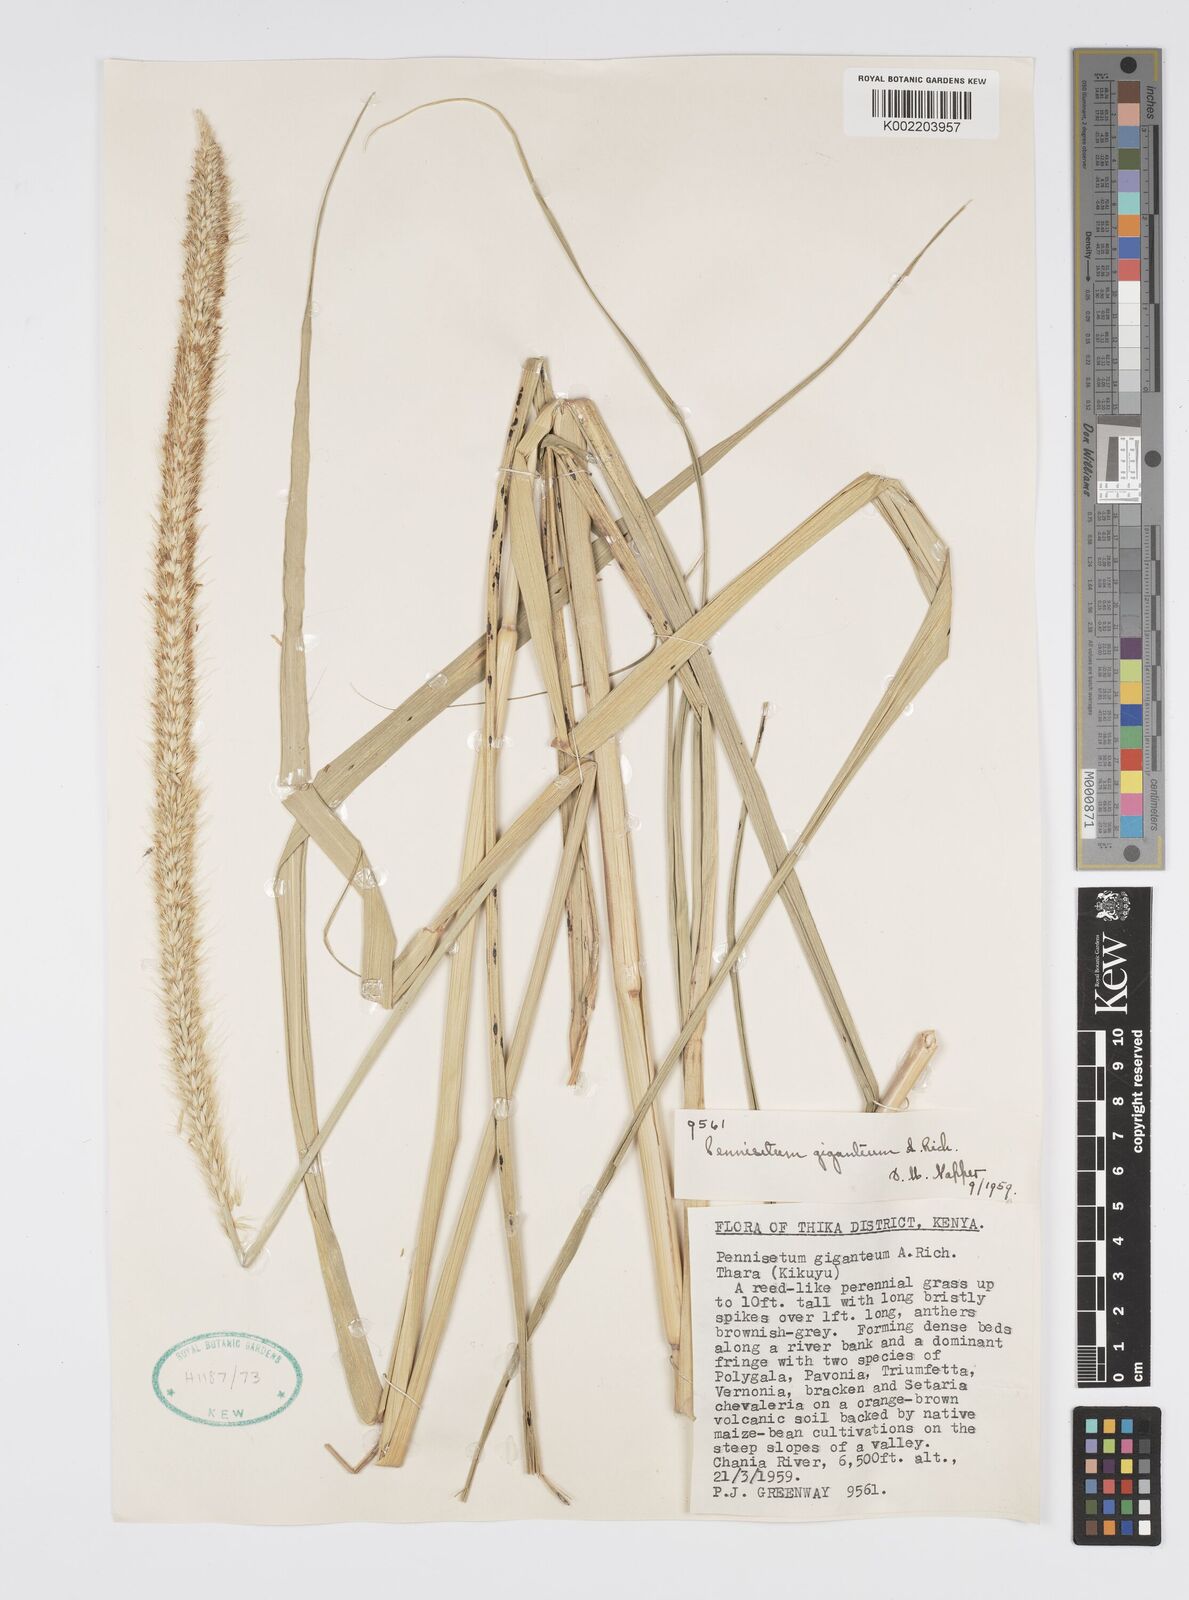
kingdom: Plantae
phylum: Tracheophyta
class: Liliopsida
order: Poales
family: Poaceae
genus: Cenchrus
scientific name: Cenchrus caudatus
